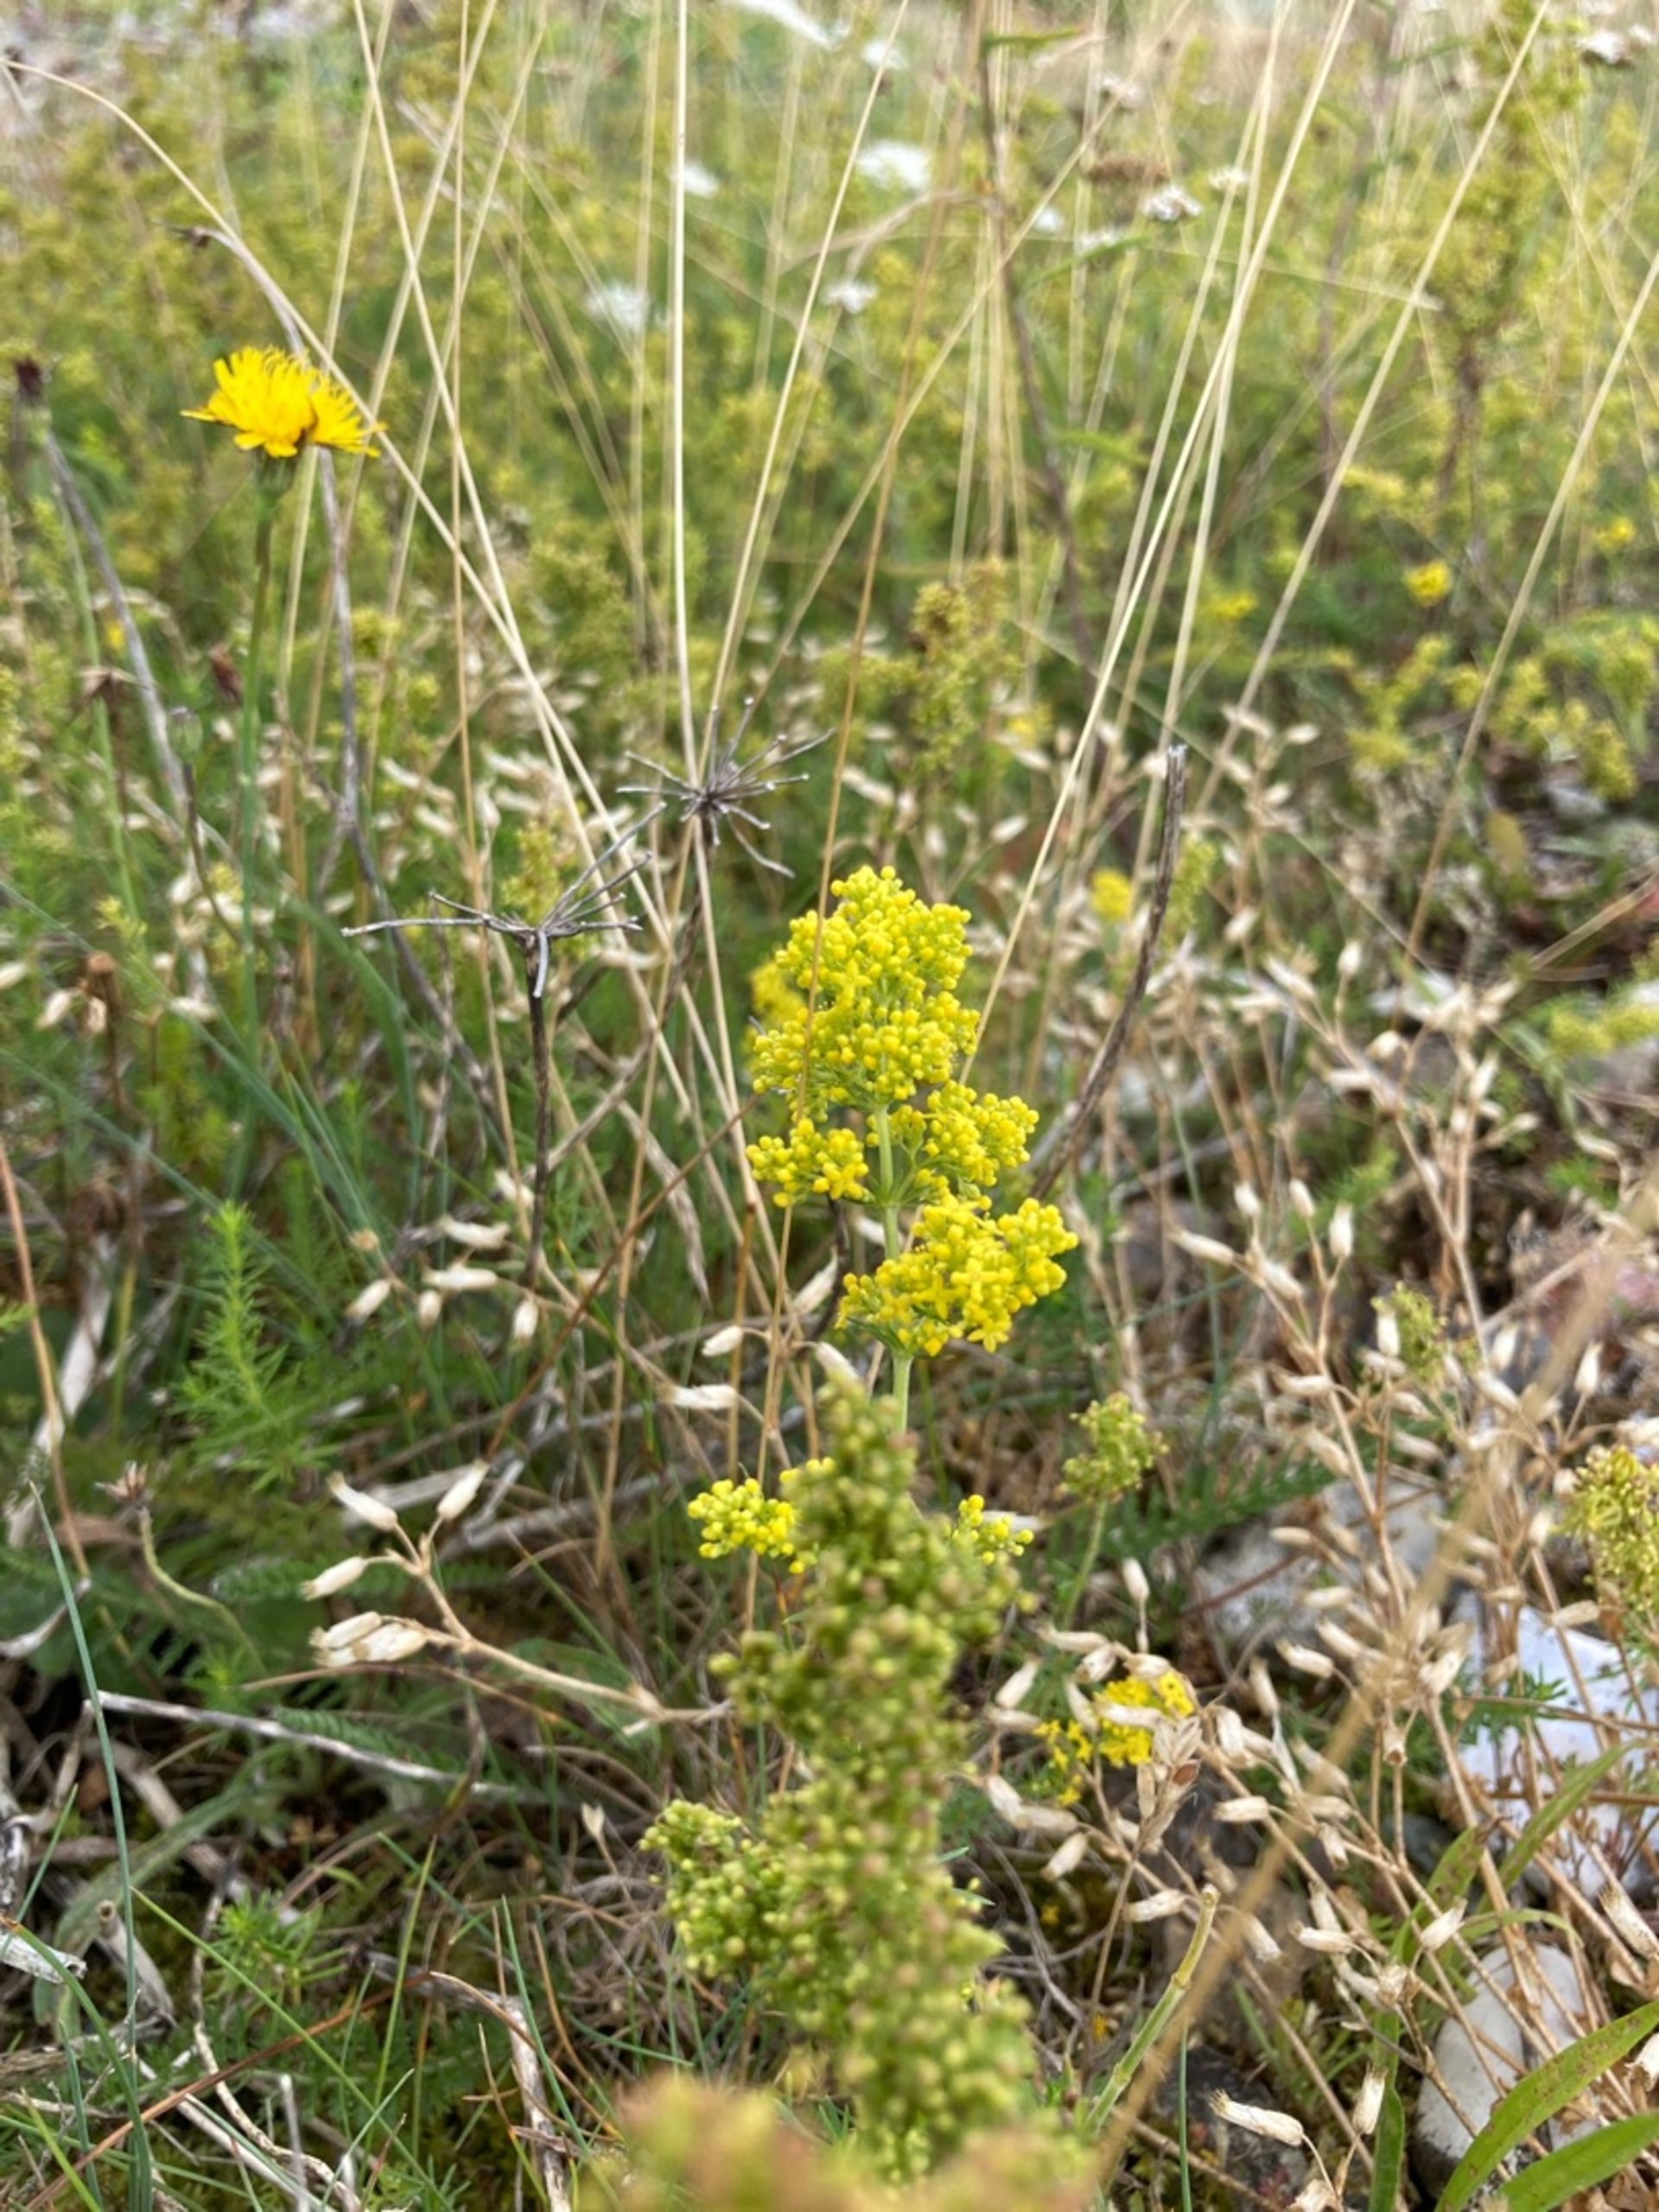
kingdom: Plantae
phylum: Tracheophyta
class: Magnoliopsida
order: Gentianales
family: Rubiaceae
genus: Galium
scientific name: Galium verum
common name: Gul snerre
